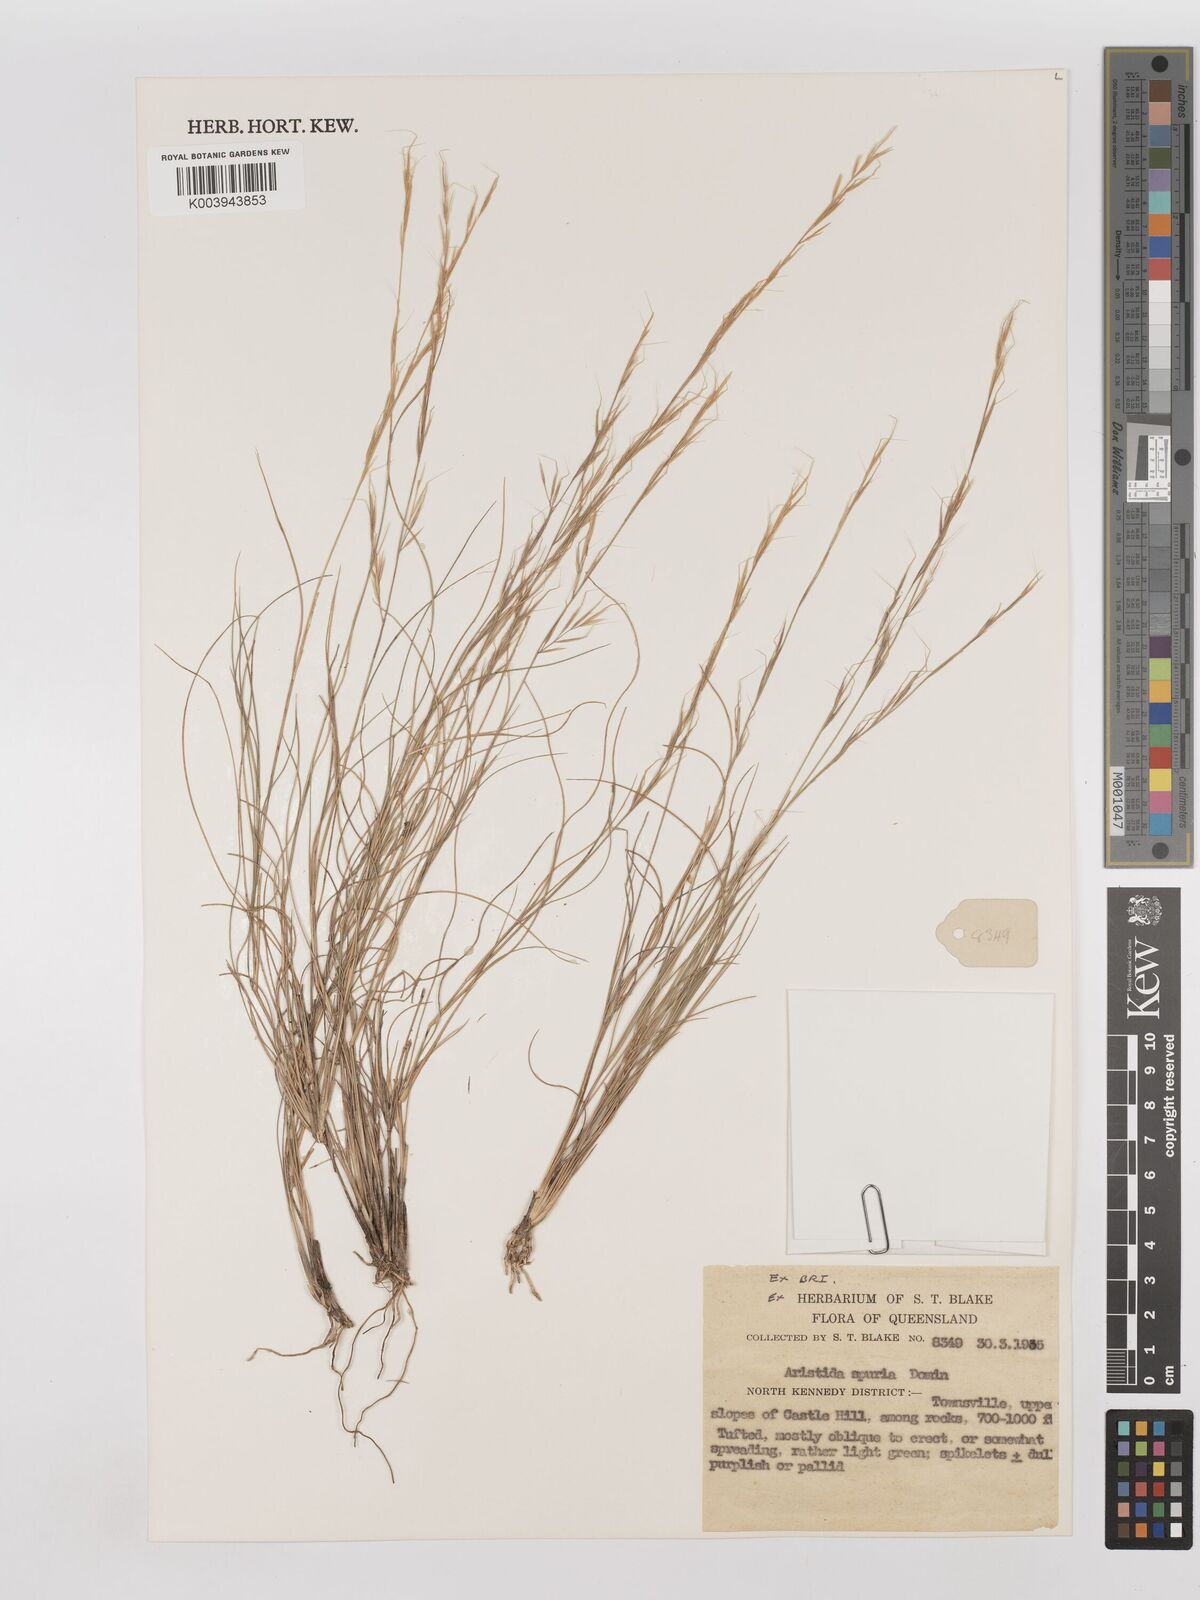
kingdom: Plantae
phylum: Tracheophyta
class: Liliopsida
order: Poales
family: Poaceae
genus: Aristida
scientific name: Aristida spuria
